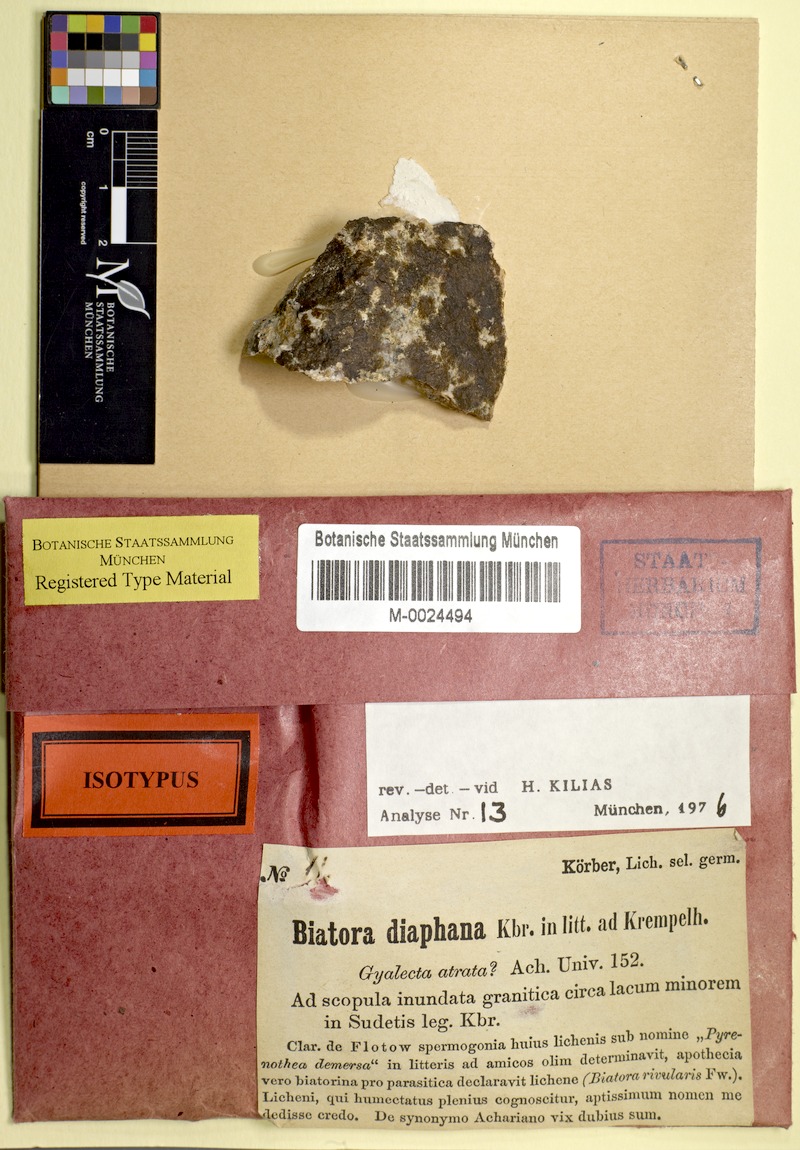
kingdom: Fungi
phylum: Ascomycota
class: Lecanoromycetes
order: Ostropales
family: Gomphillaceae
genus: Gyalidea
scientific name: Gyalidea diaphana
